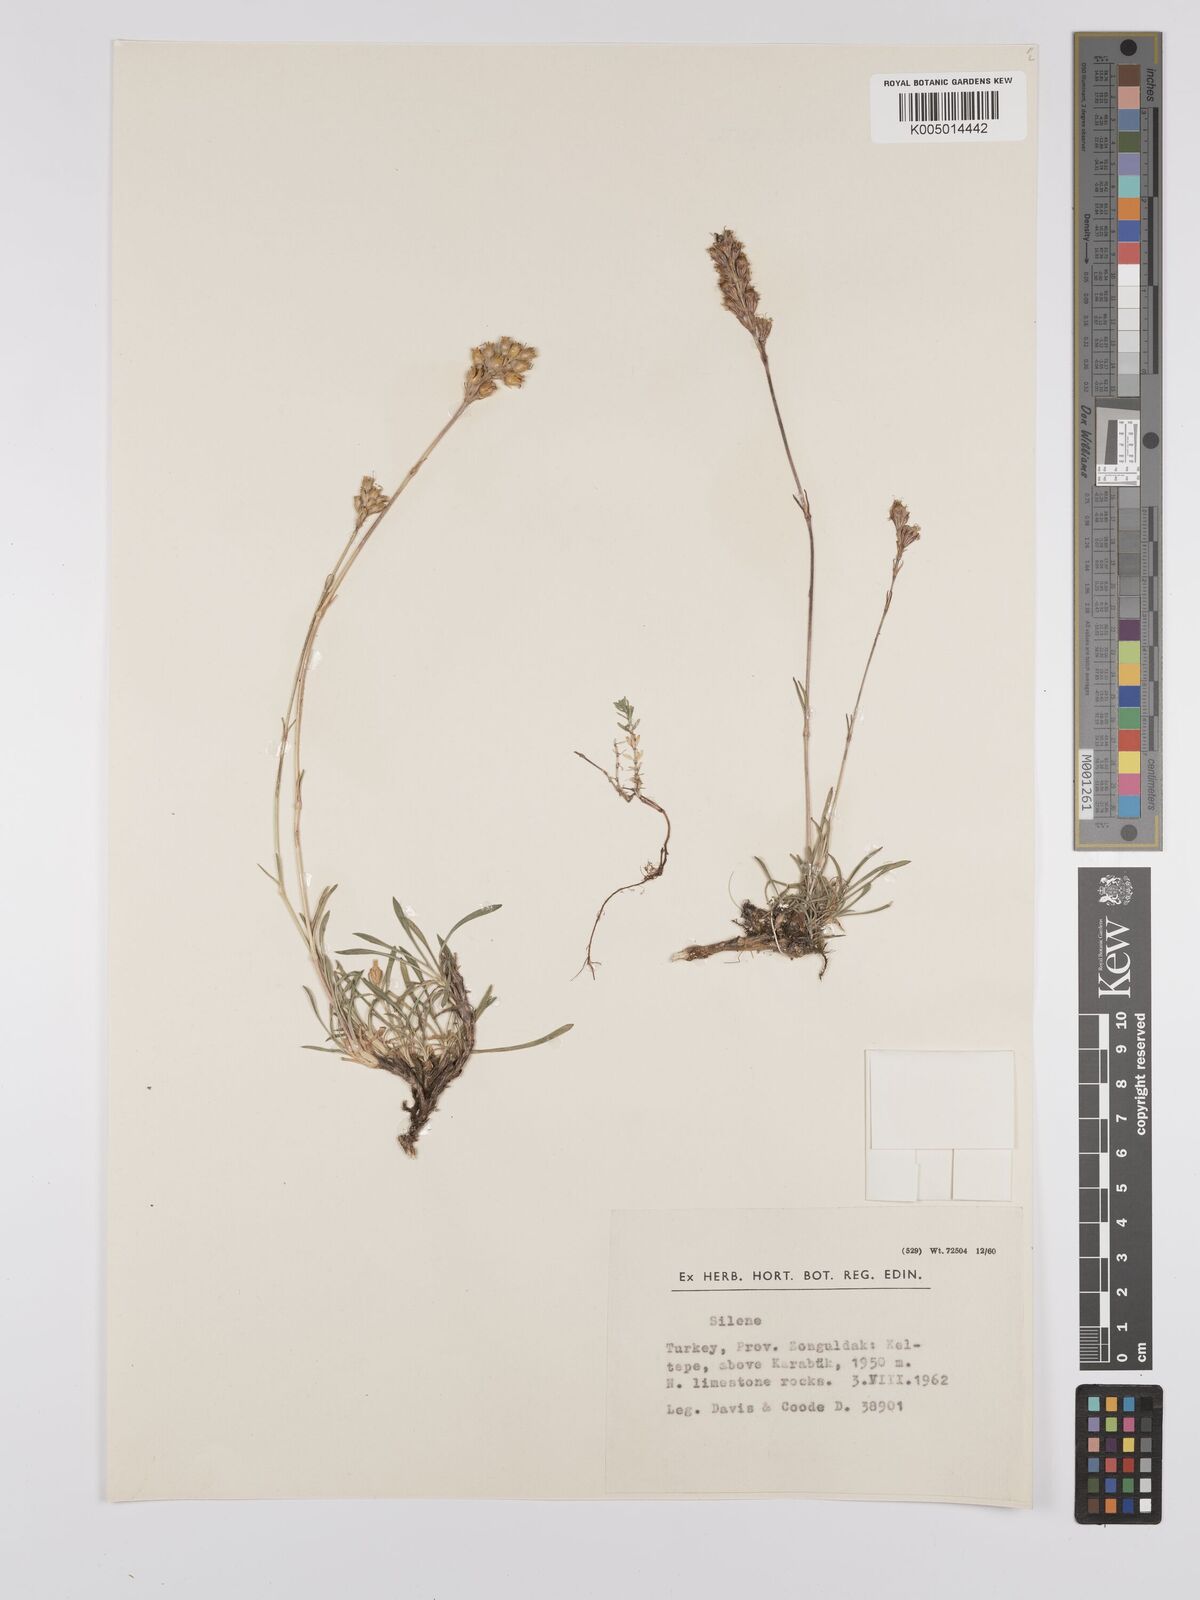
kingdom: Plantae
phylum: Tracheophyta
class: Magnoliopsida
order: Caryophyllales
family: Caryophyllaceae
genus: Silene
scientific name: Silene
